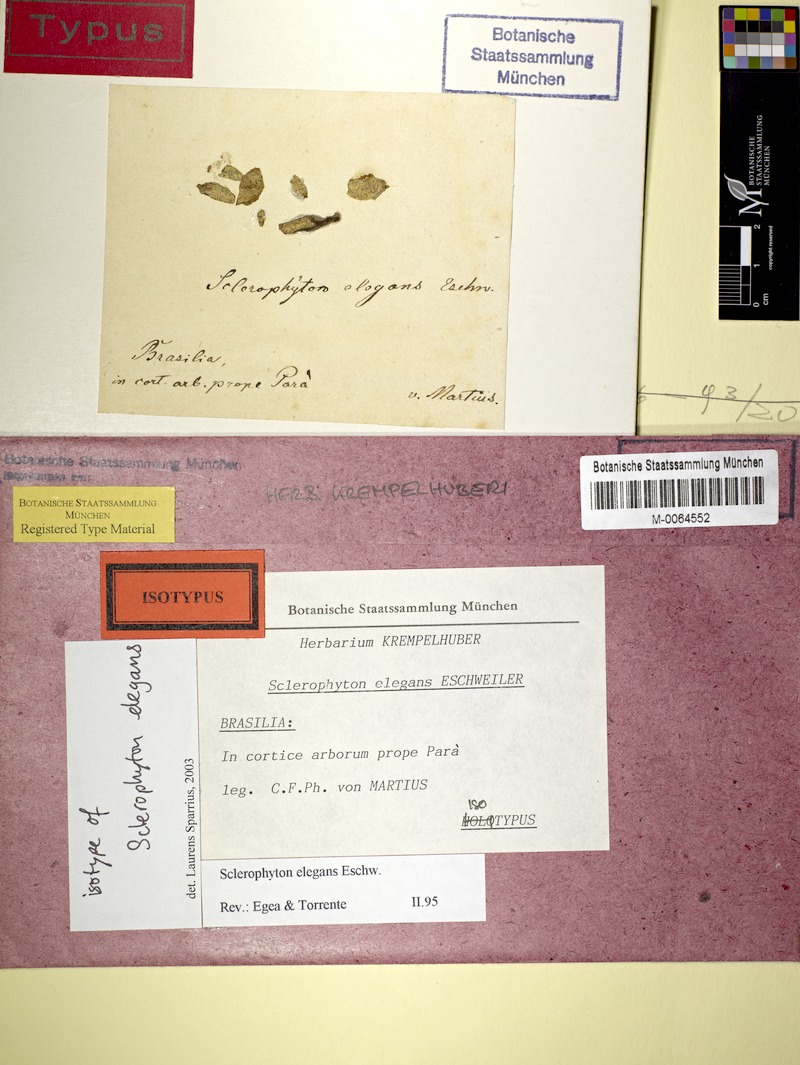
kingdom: Fungi
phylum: Ascomycota
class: Arthoniomycetes
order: Arthoniales
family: Opegraphaceae
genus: Sclerophyton
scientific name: Sclerophyton elegans
